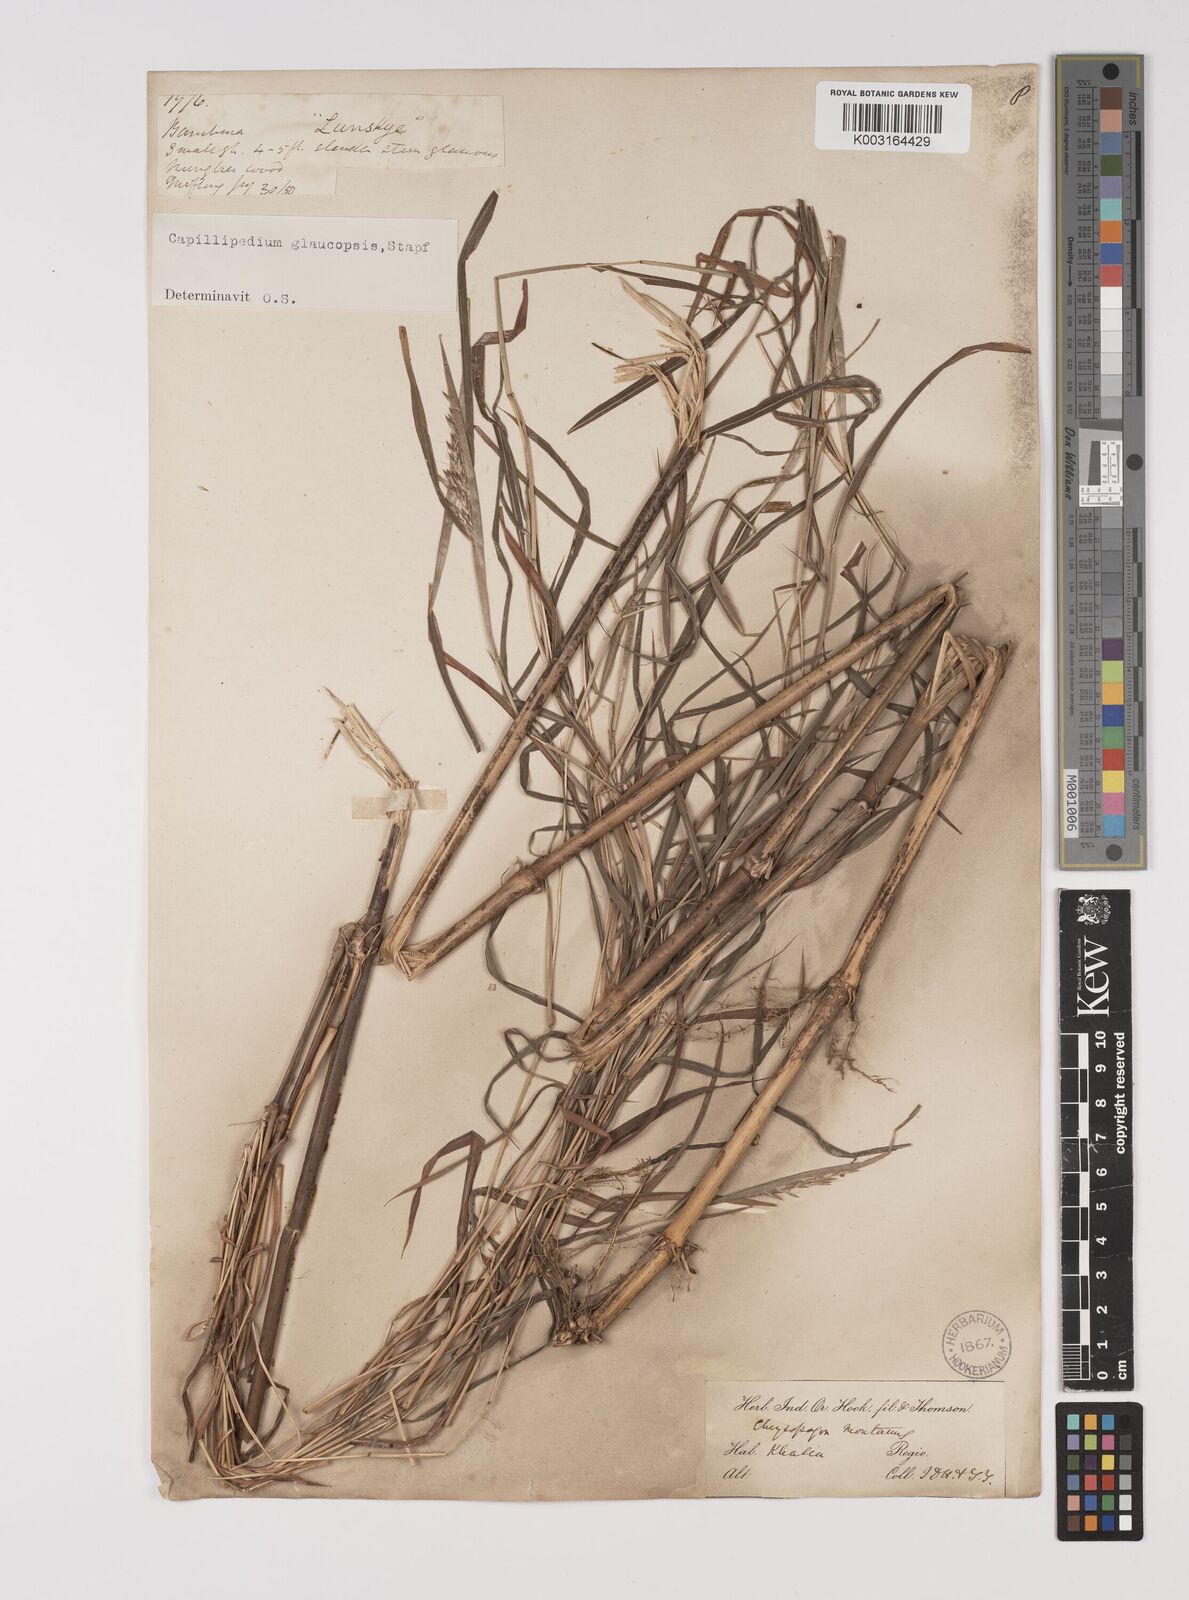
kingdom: Plantae
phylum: Tracheophyta
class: Liliopsida
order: Poales
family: Poaceae
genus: Capillipedium
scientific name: Capillipedium assimile
